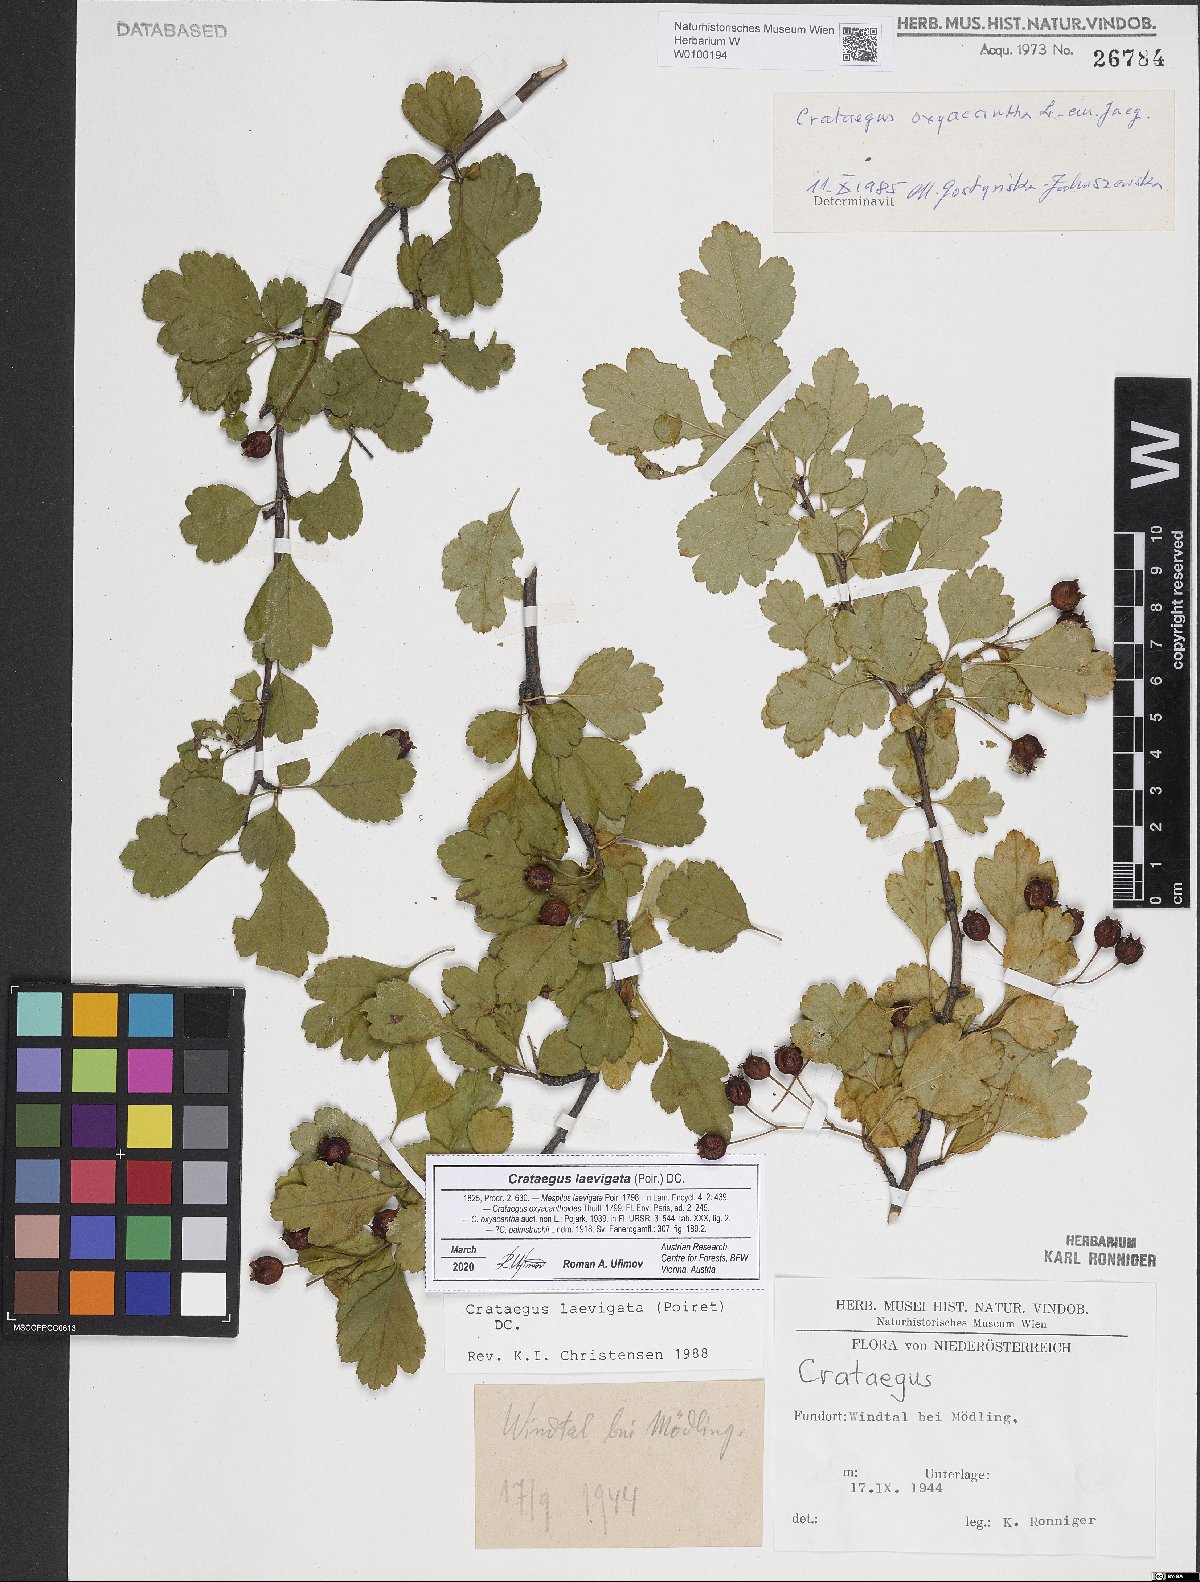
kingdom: Plantae
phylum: Tracheophyta
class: Magnoliopsida
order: Rosales
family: Rosaceae
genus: Crataegus
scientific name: Crataegus laevigata
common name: Midland hawthorn
